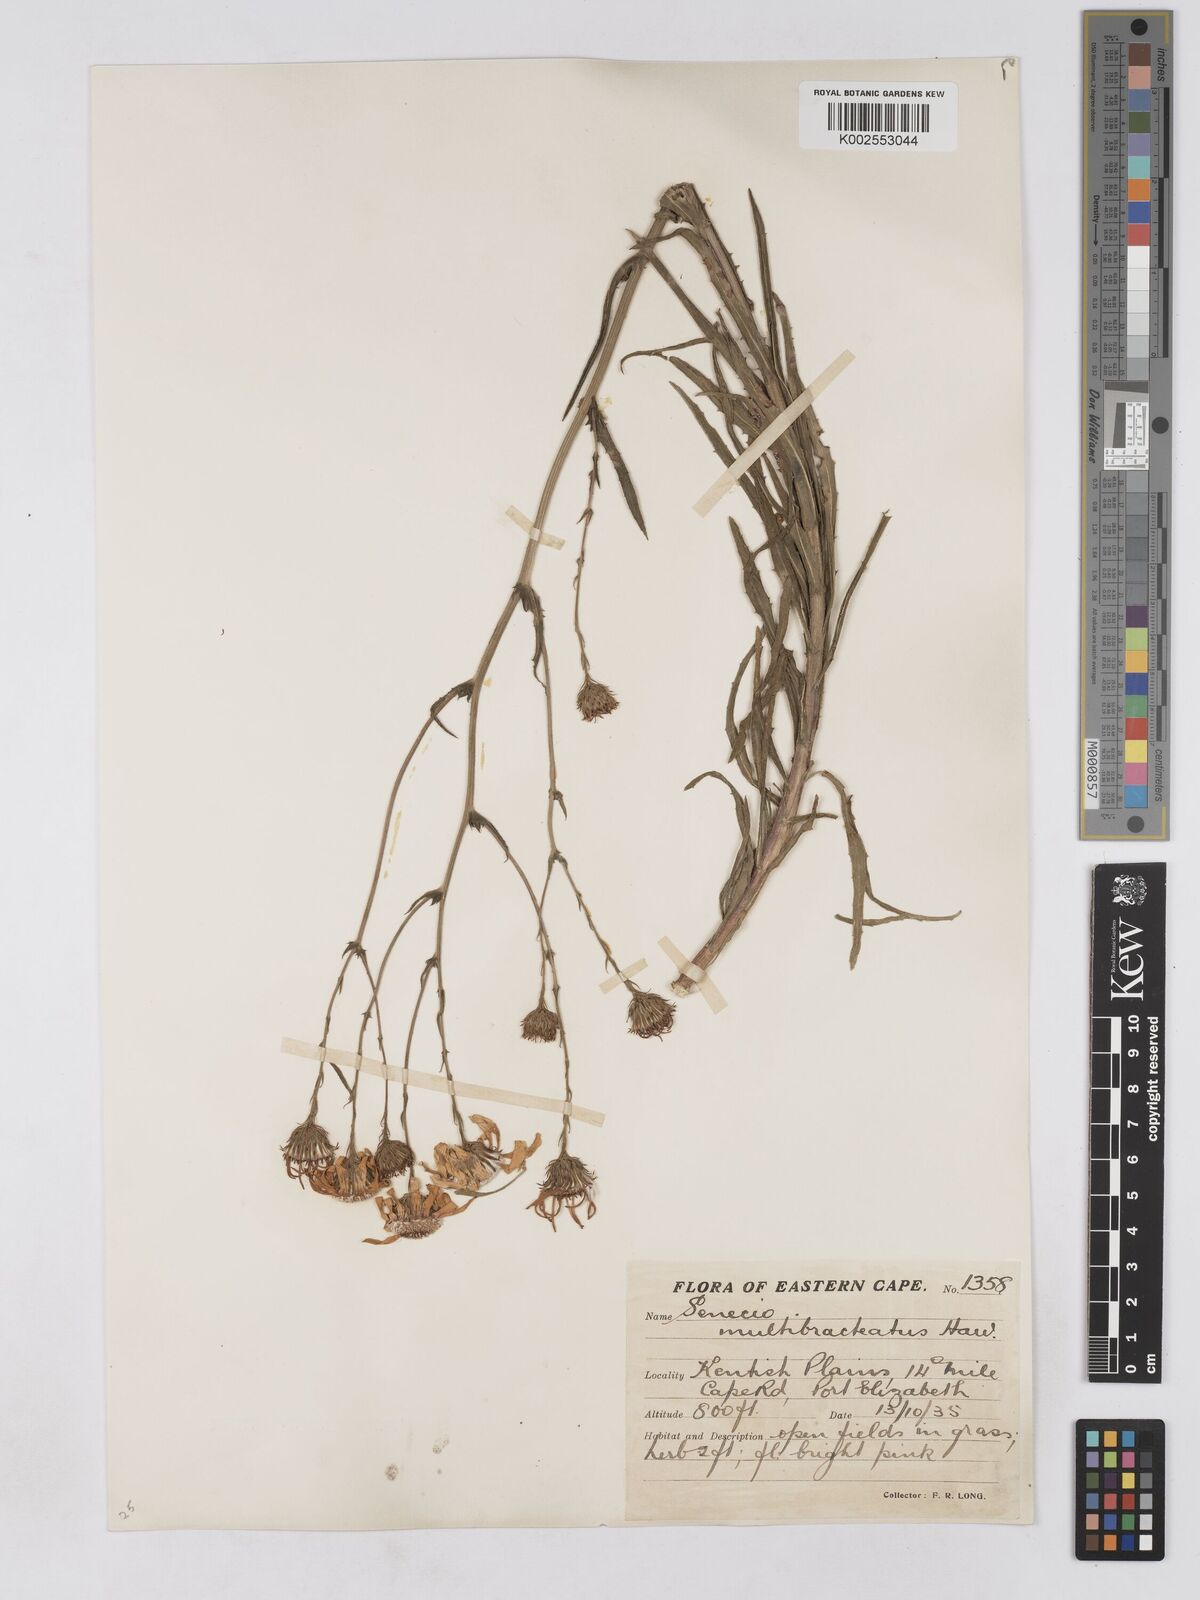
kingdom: Plantae
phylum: Tracheophyta
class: Magnoliopsida
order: Asterales
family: Asteraceae
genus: Senecio
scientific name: Senecio multibracteatus
